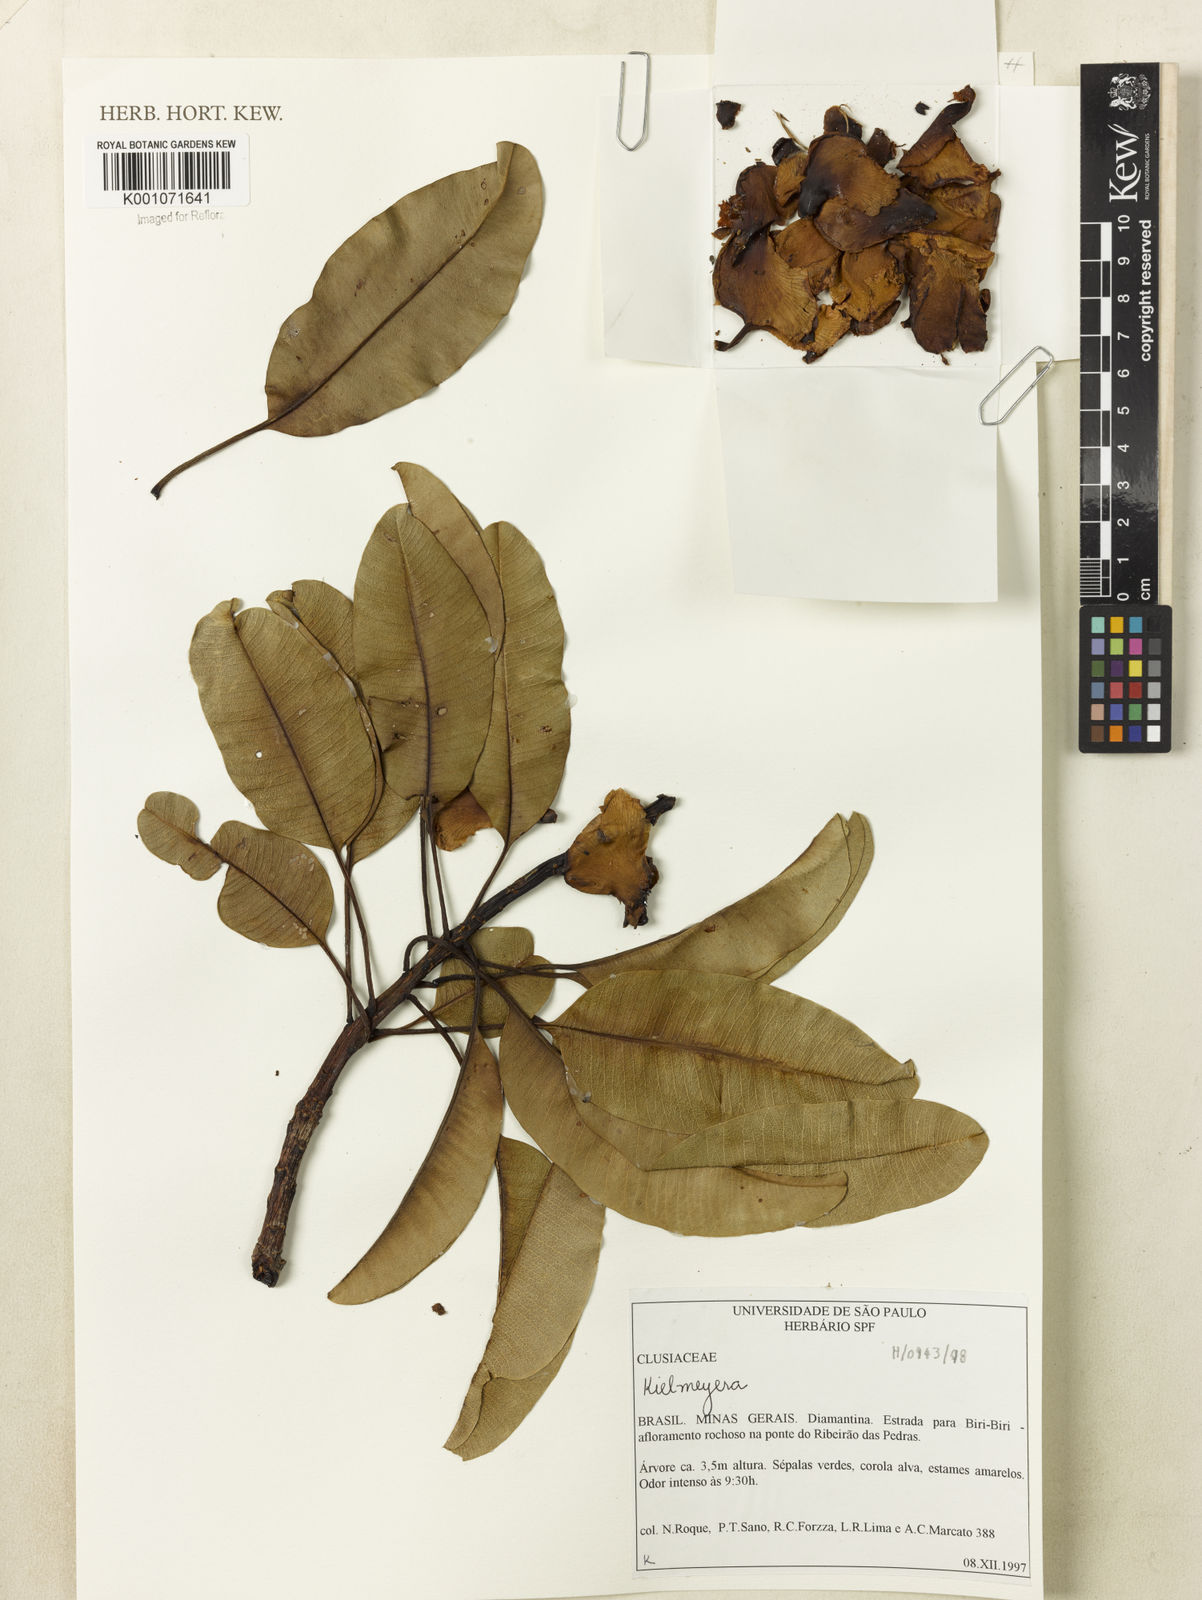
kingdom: Plantae
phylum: Tracheophyta
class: Magnoliopsida
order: Malpighiales
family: Calophyllaceae
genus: Kielmeyera
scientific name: Kielmeyera
